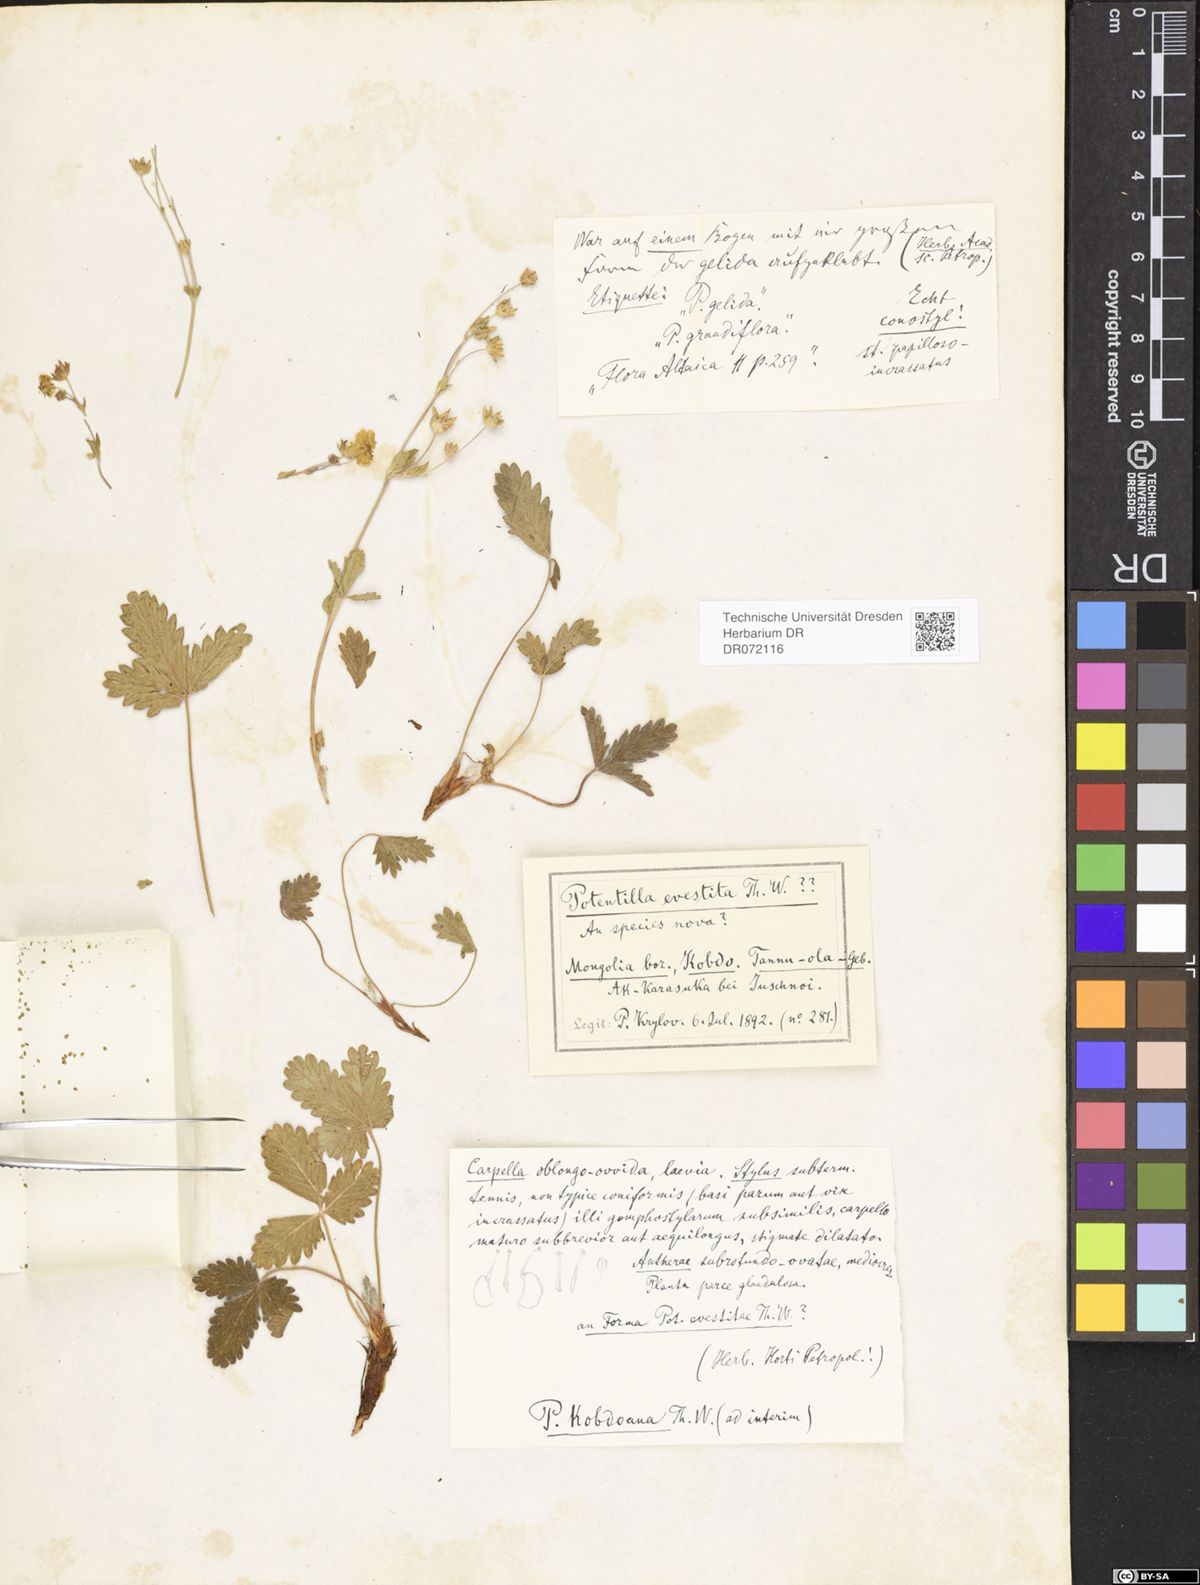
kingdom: Plantae
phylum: Tracheophyta
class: Magnoliopsida
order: Rosales
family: Rosaceae
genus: Potentilla
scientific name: Potentilla evestita
